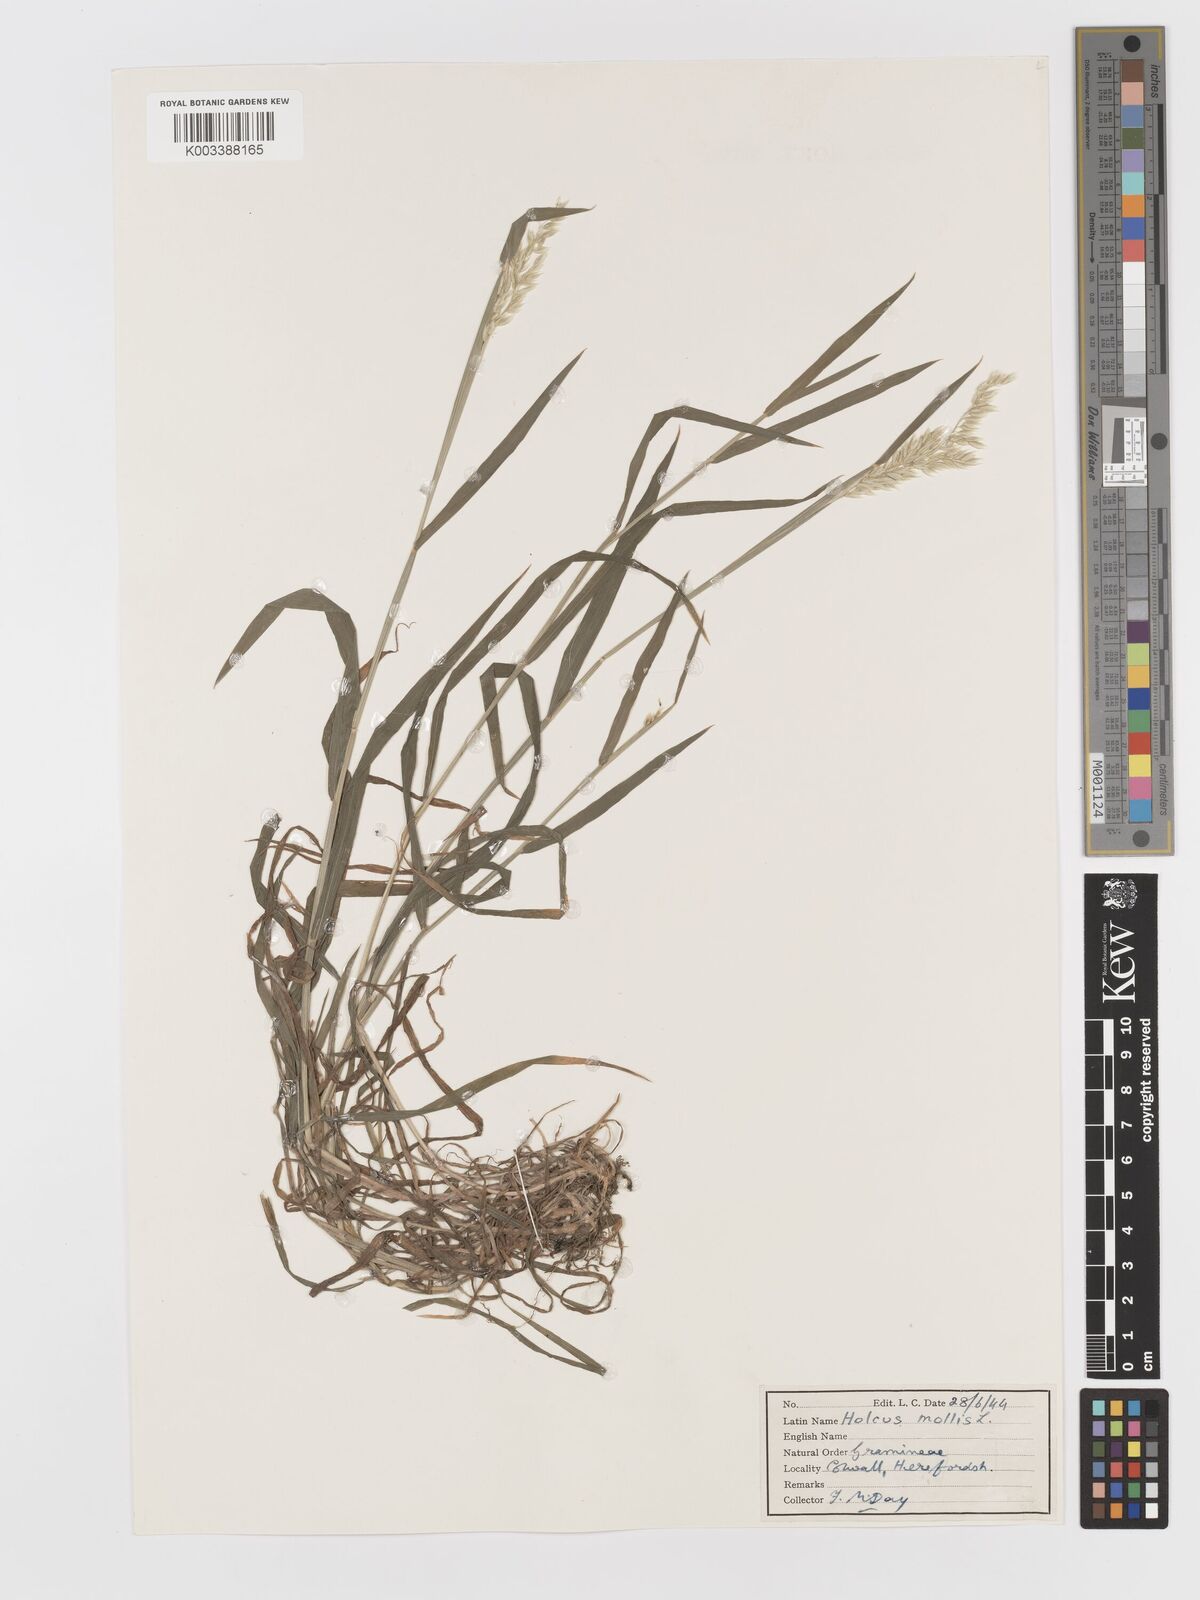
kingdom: Plantae
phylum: Tracheophyta
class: Liliopsida
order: Poales
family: Poaceae
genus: Holcus
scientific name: Holcus mollis
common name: Creeping velvetgrass
